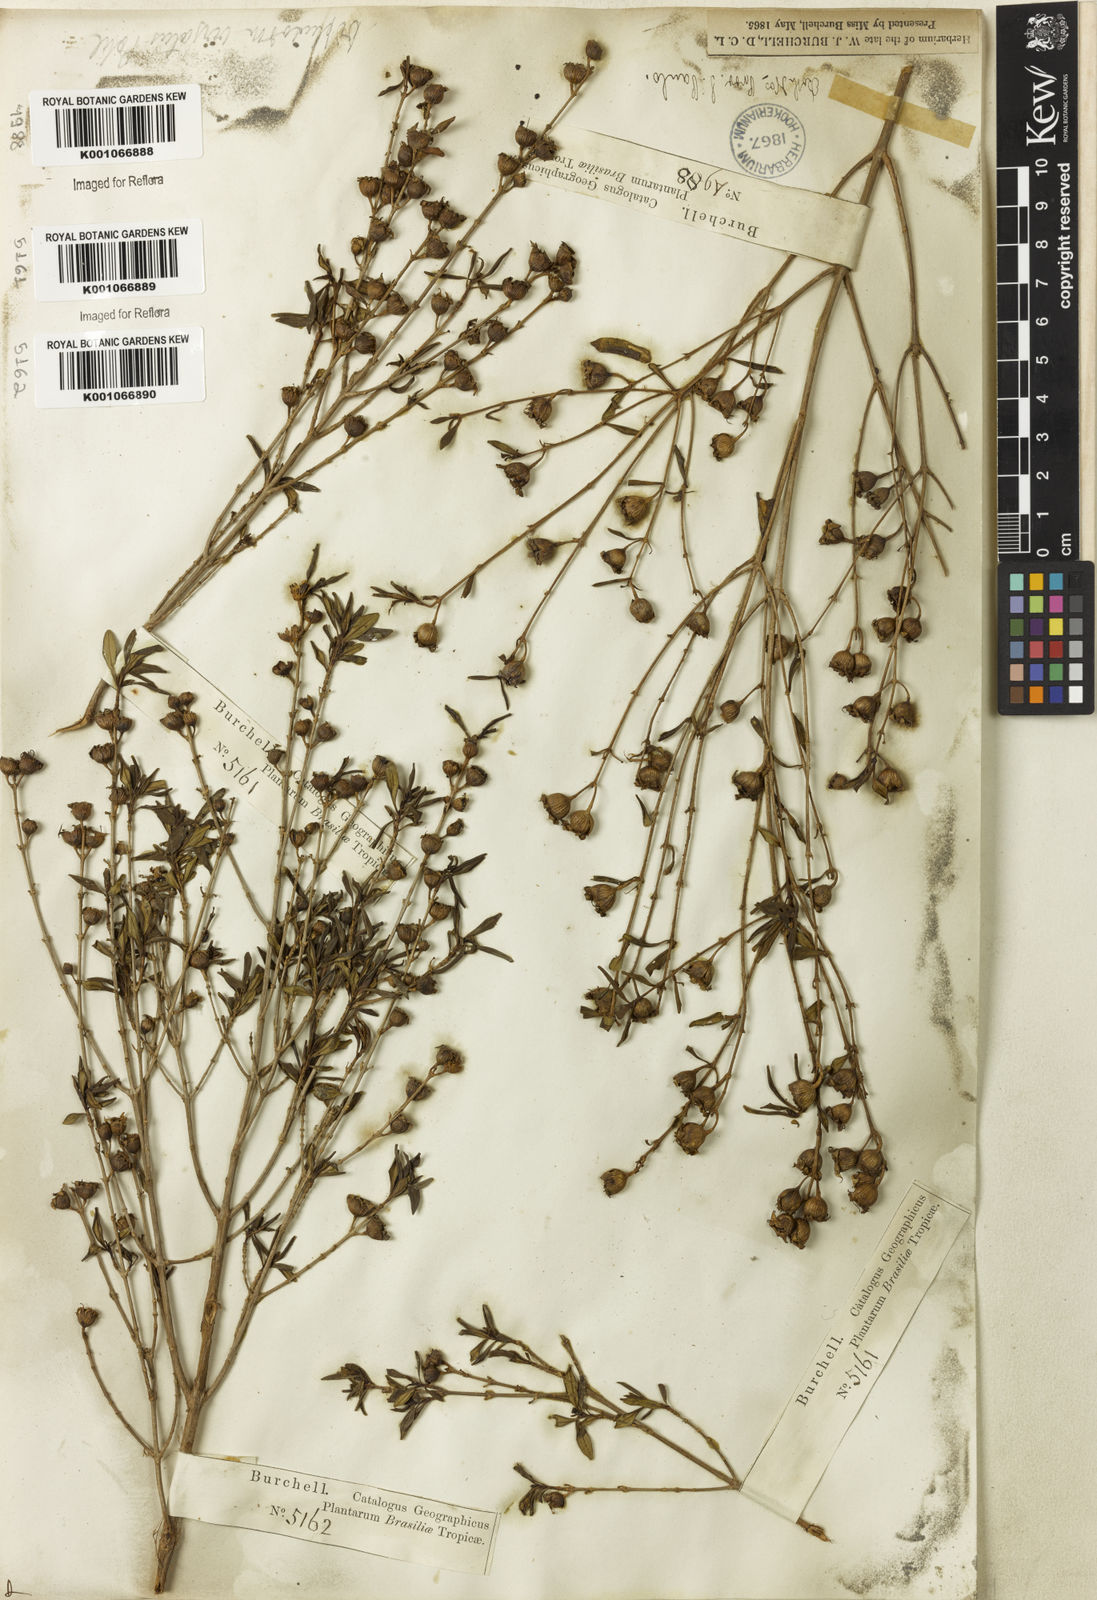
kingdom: Plantae
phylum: Tracheophyta
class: Magnoliopsida
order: Myrtales
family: Lythraceae
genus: Diplusodon
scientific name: Diplusodon virgatus
